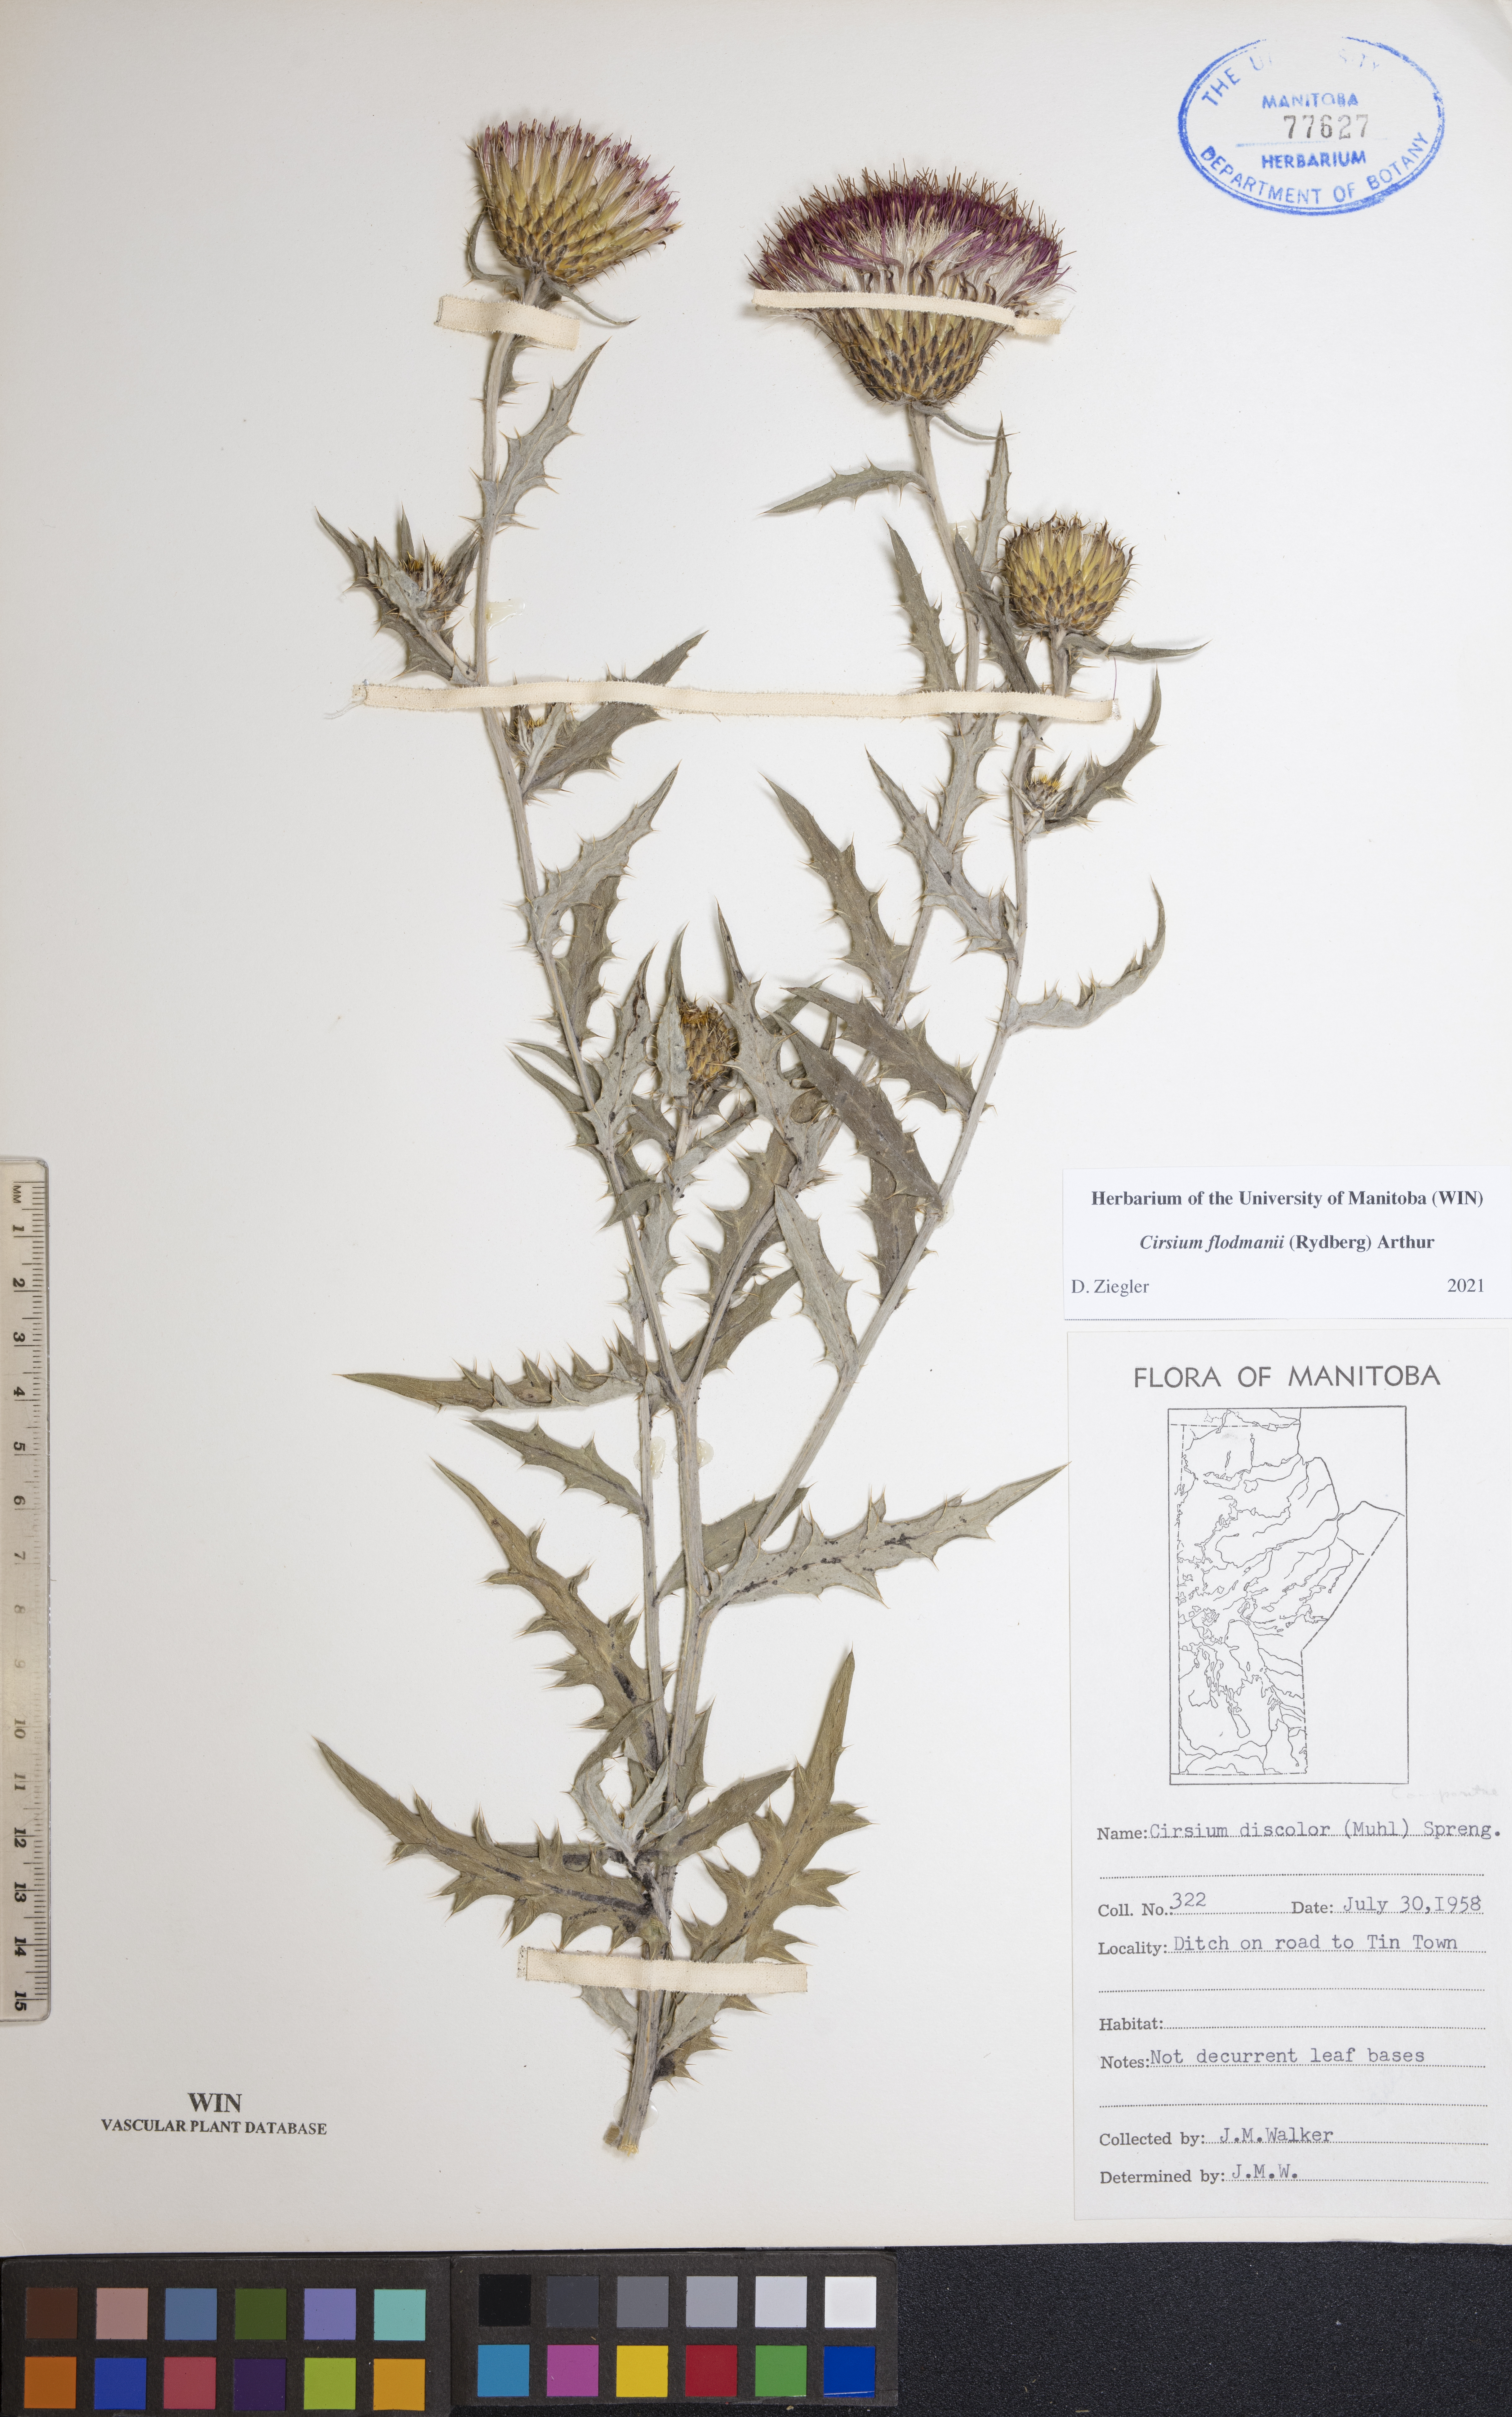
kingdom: Plantae
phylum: Tracheophyta
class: Magnoliopsida
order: Asterales
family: Asteraceae
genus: Cirsium
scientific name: Cirsium flodmanii
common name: Flodman's thistle
